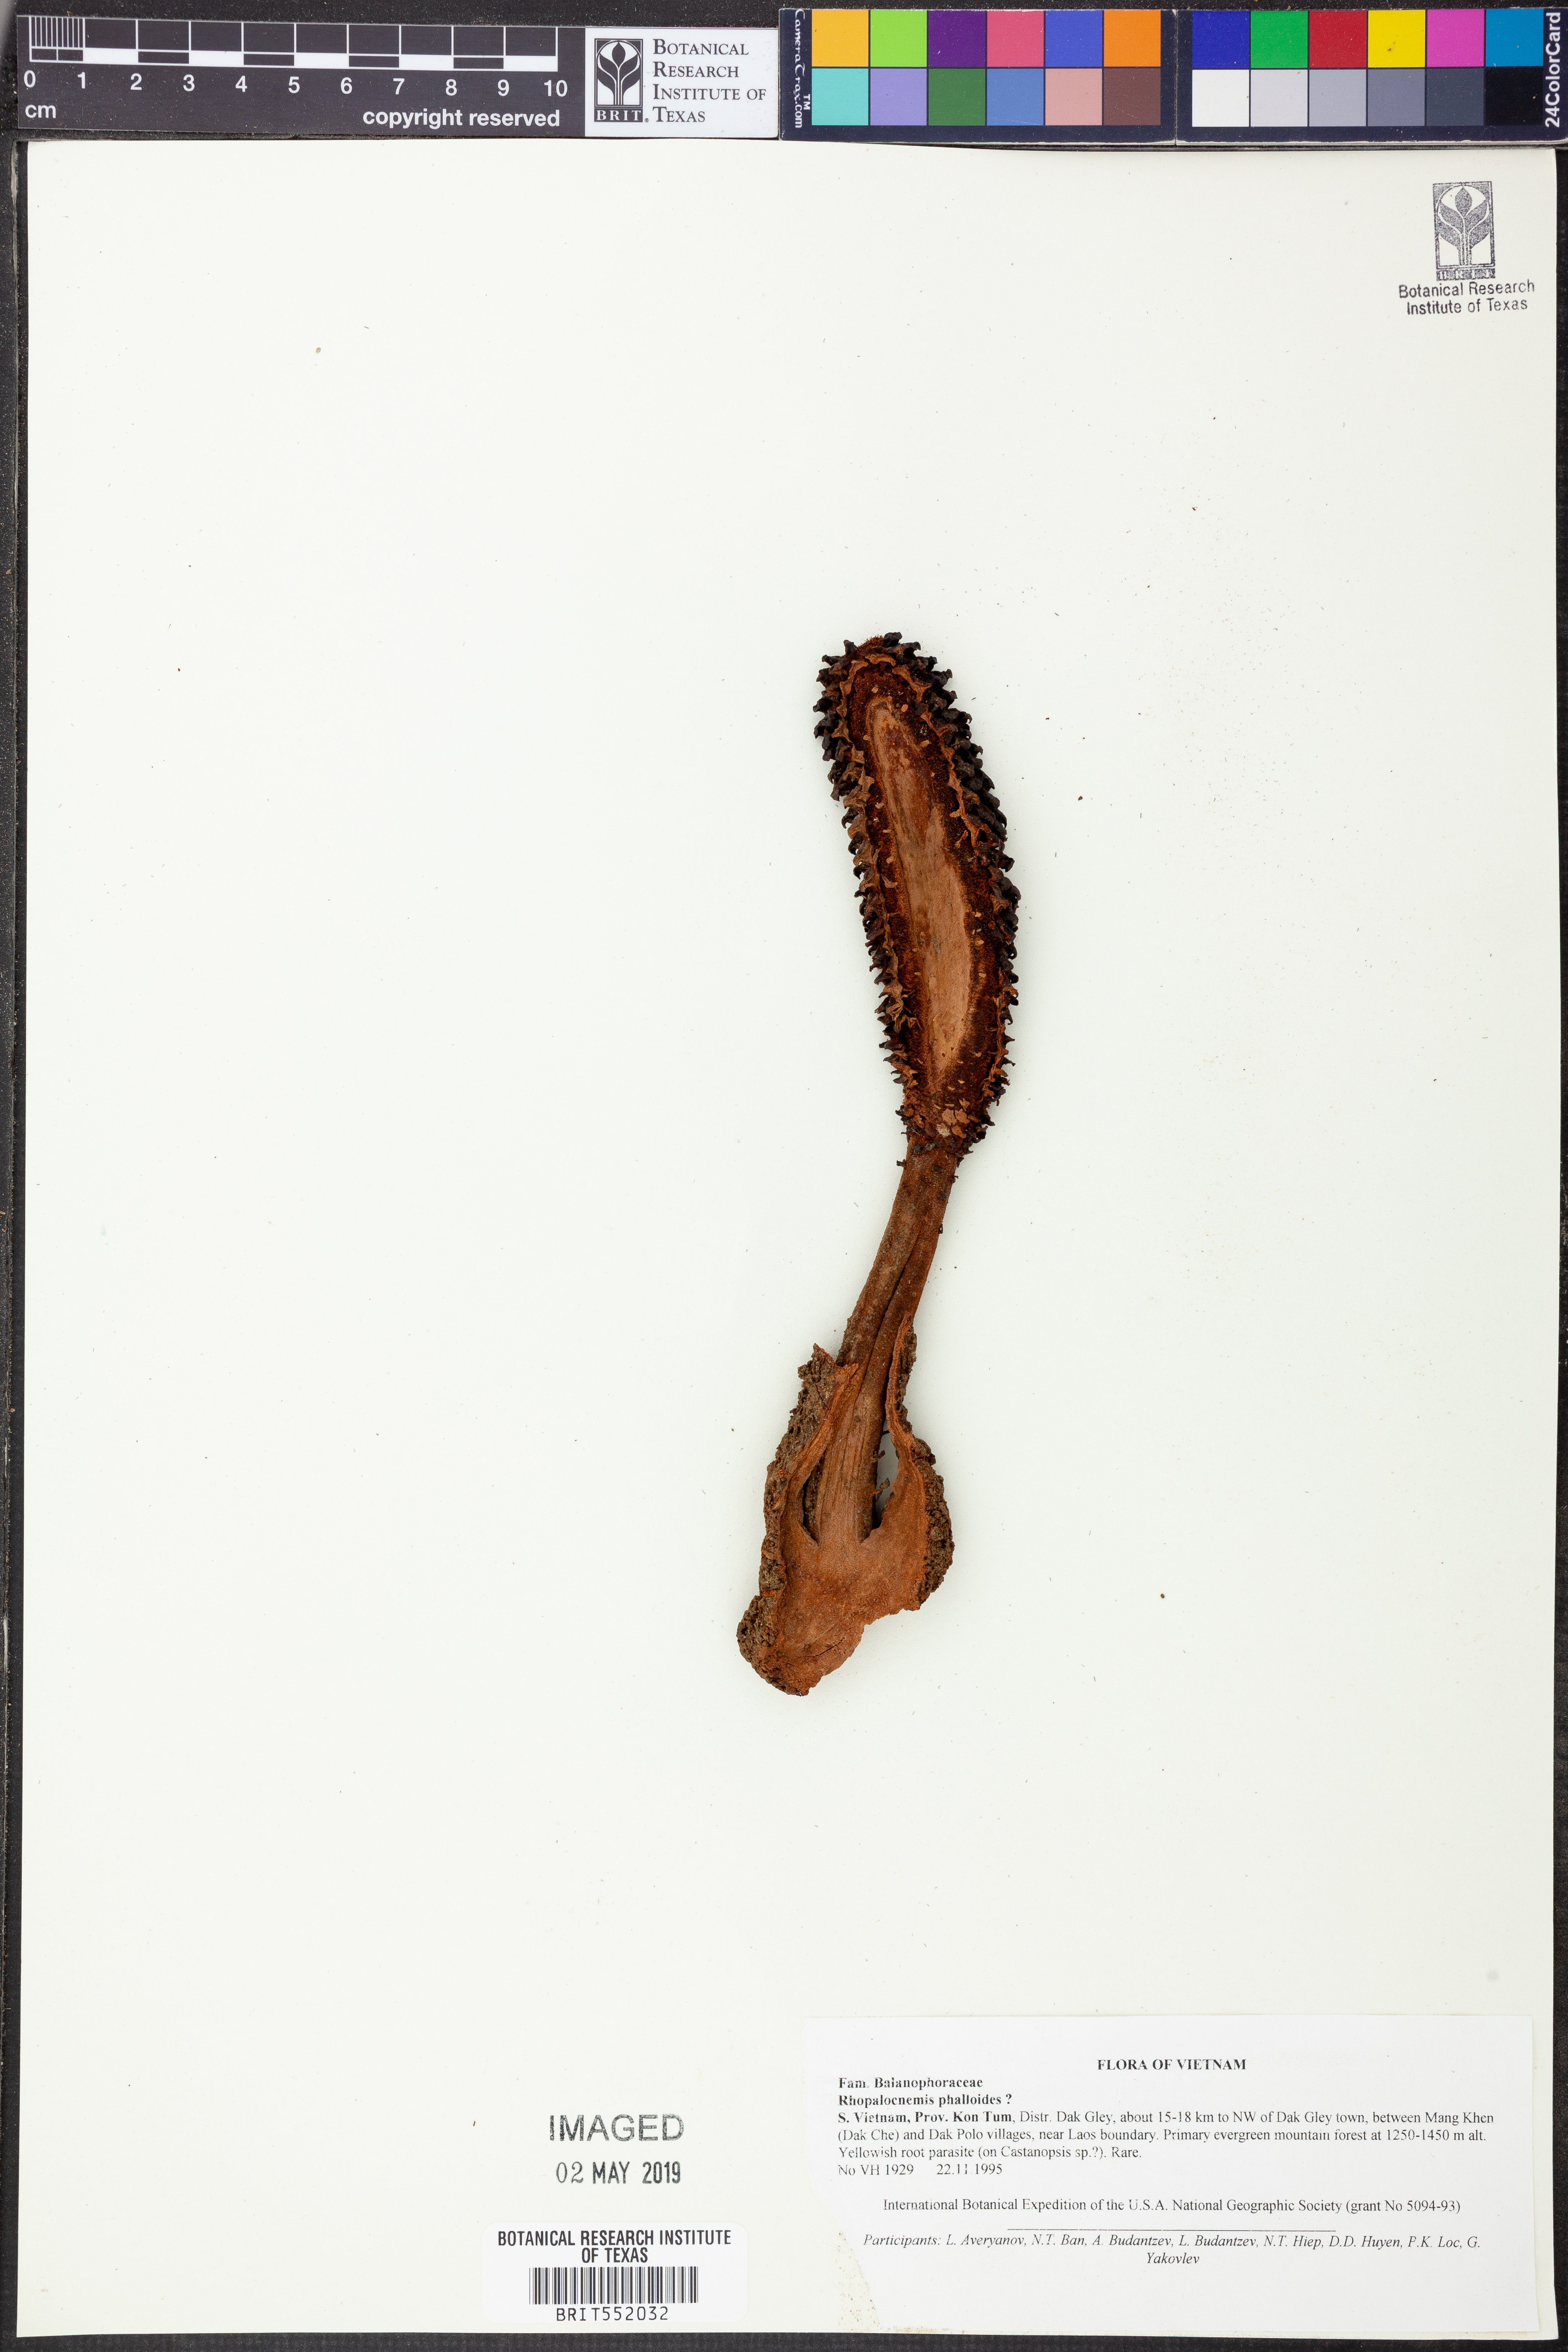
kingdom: Plantae
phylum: Tracheophyta
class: Magnoliopsida
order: Santalales
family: Balanophoraceae
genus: Rhopalocnemis
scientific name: Rhopalocnemis phalloides
